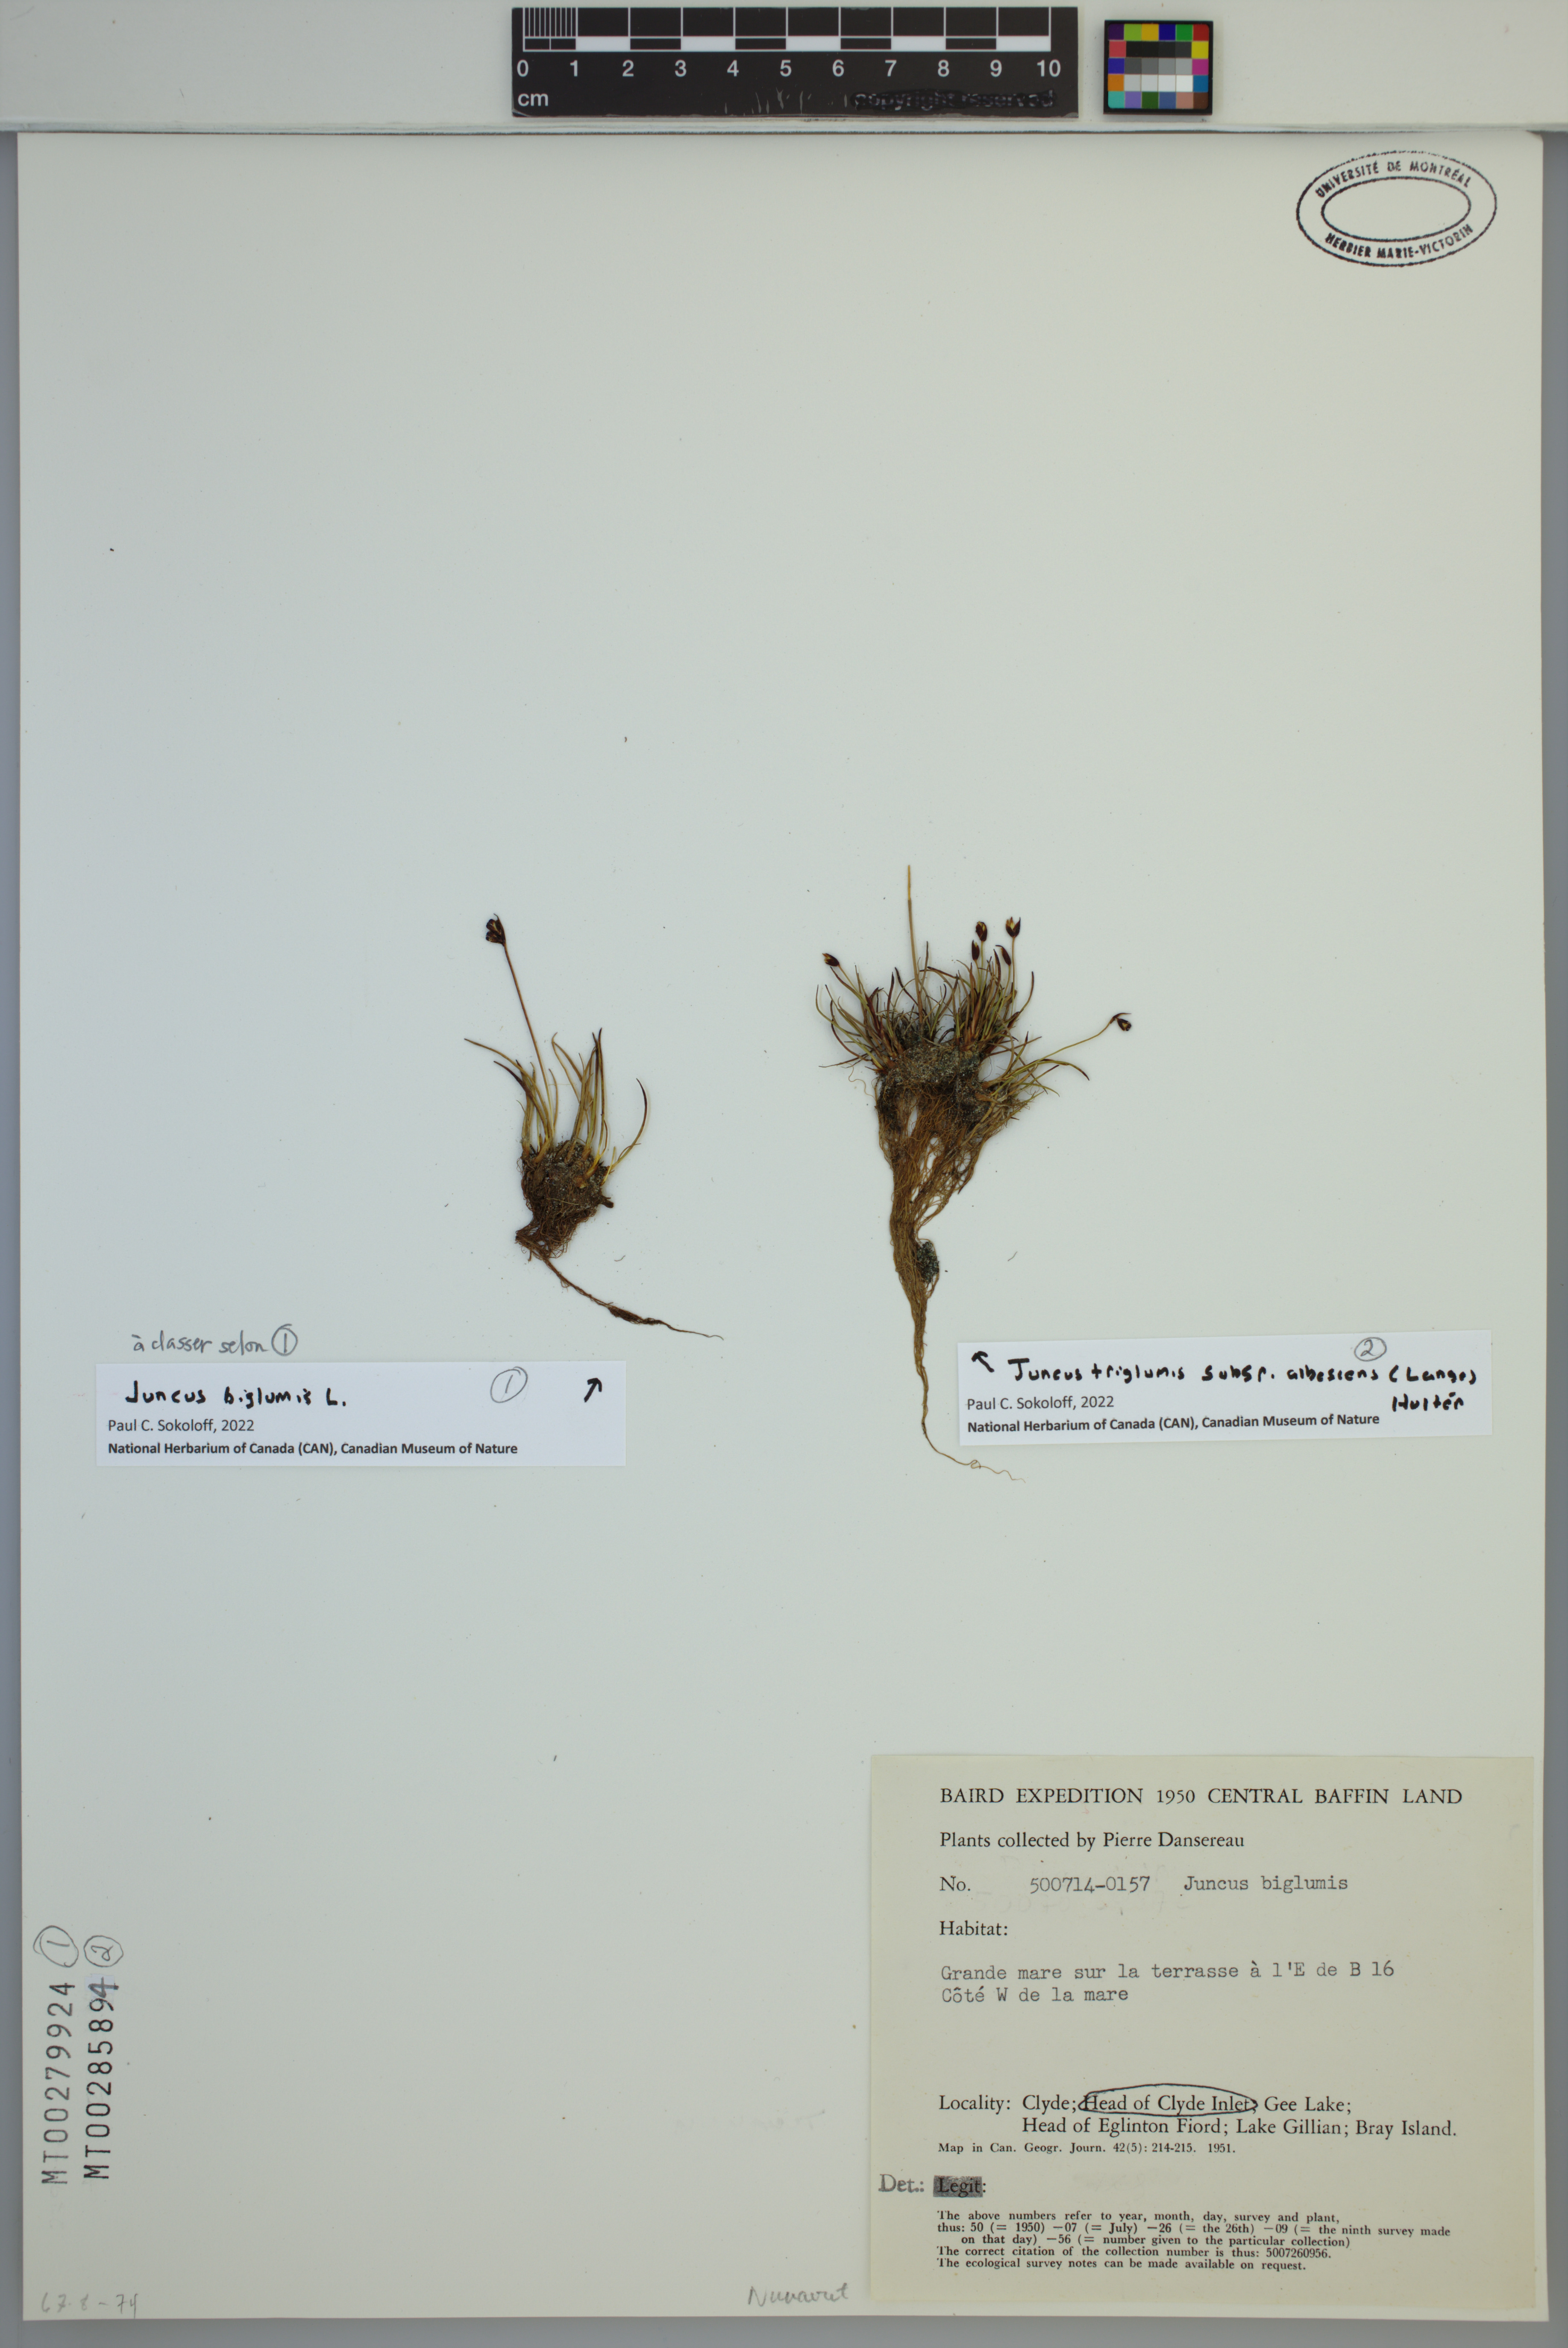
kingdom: Plantae
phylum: Tracheophyta
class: Liliopsida
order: Poales
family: Juncaceae
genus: Juncus
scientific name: Juncus biglumis
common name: Two-flowered rush
